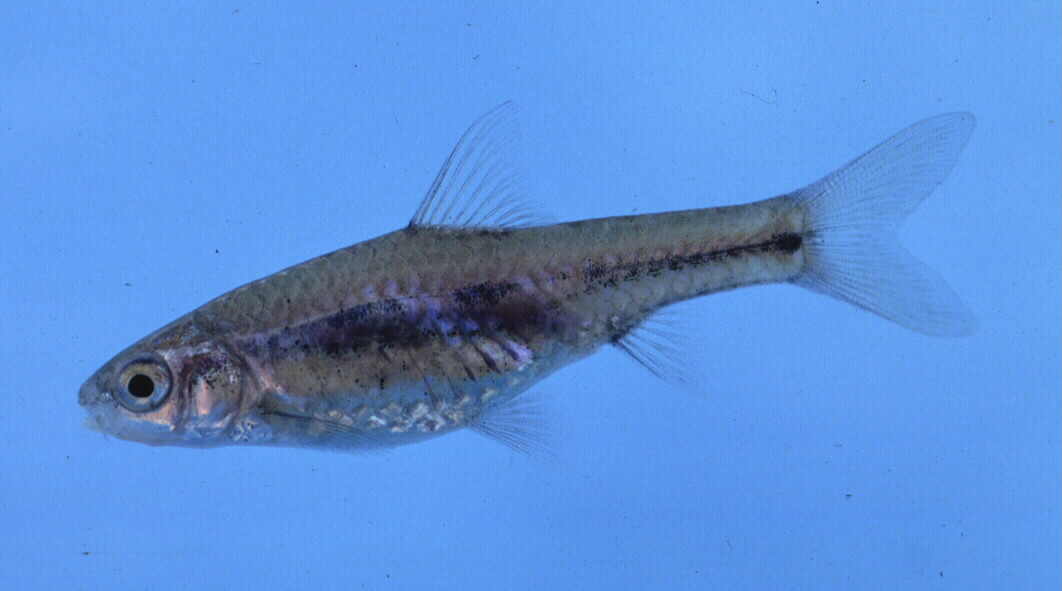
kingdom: Animalia
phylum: Chordata
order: Cypriniformes
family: Cyprinidae
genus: Enteromius
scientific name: Enteromius toppini
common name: East coast barb
